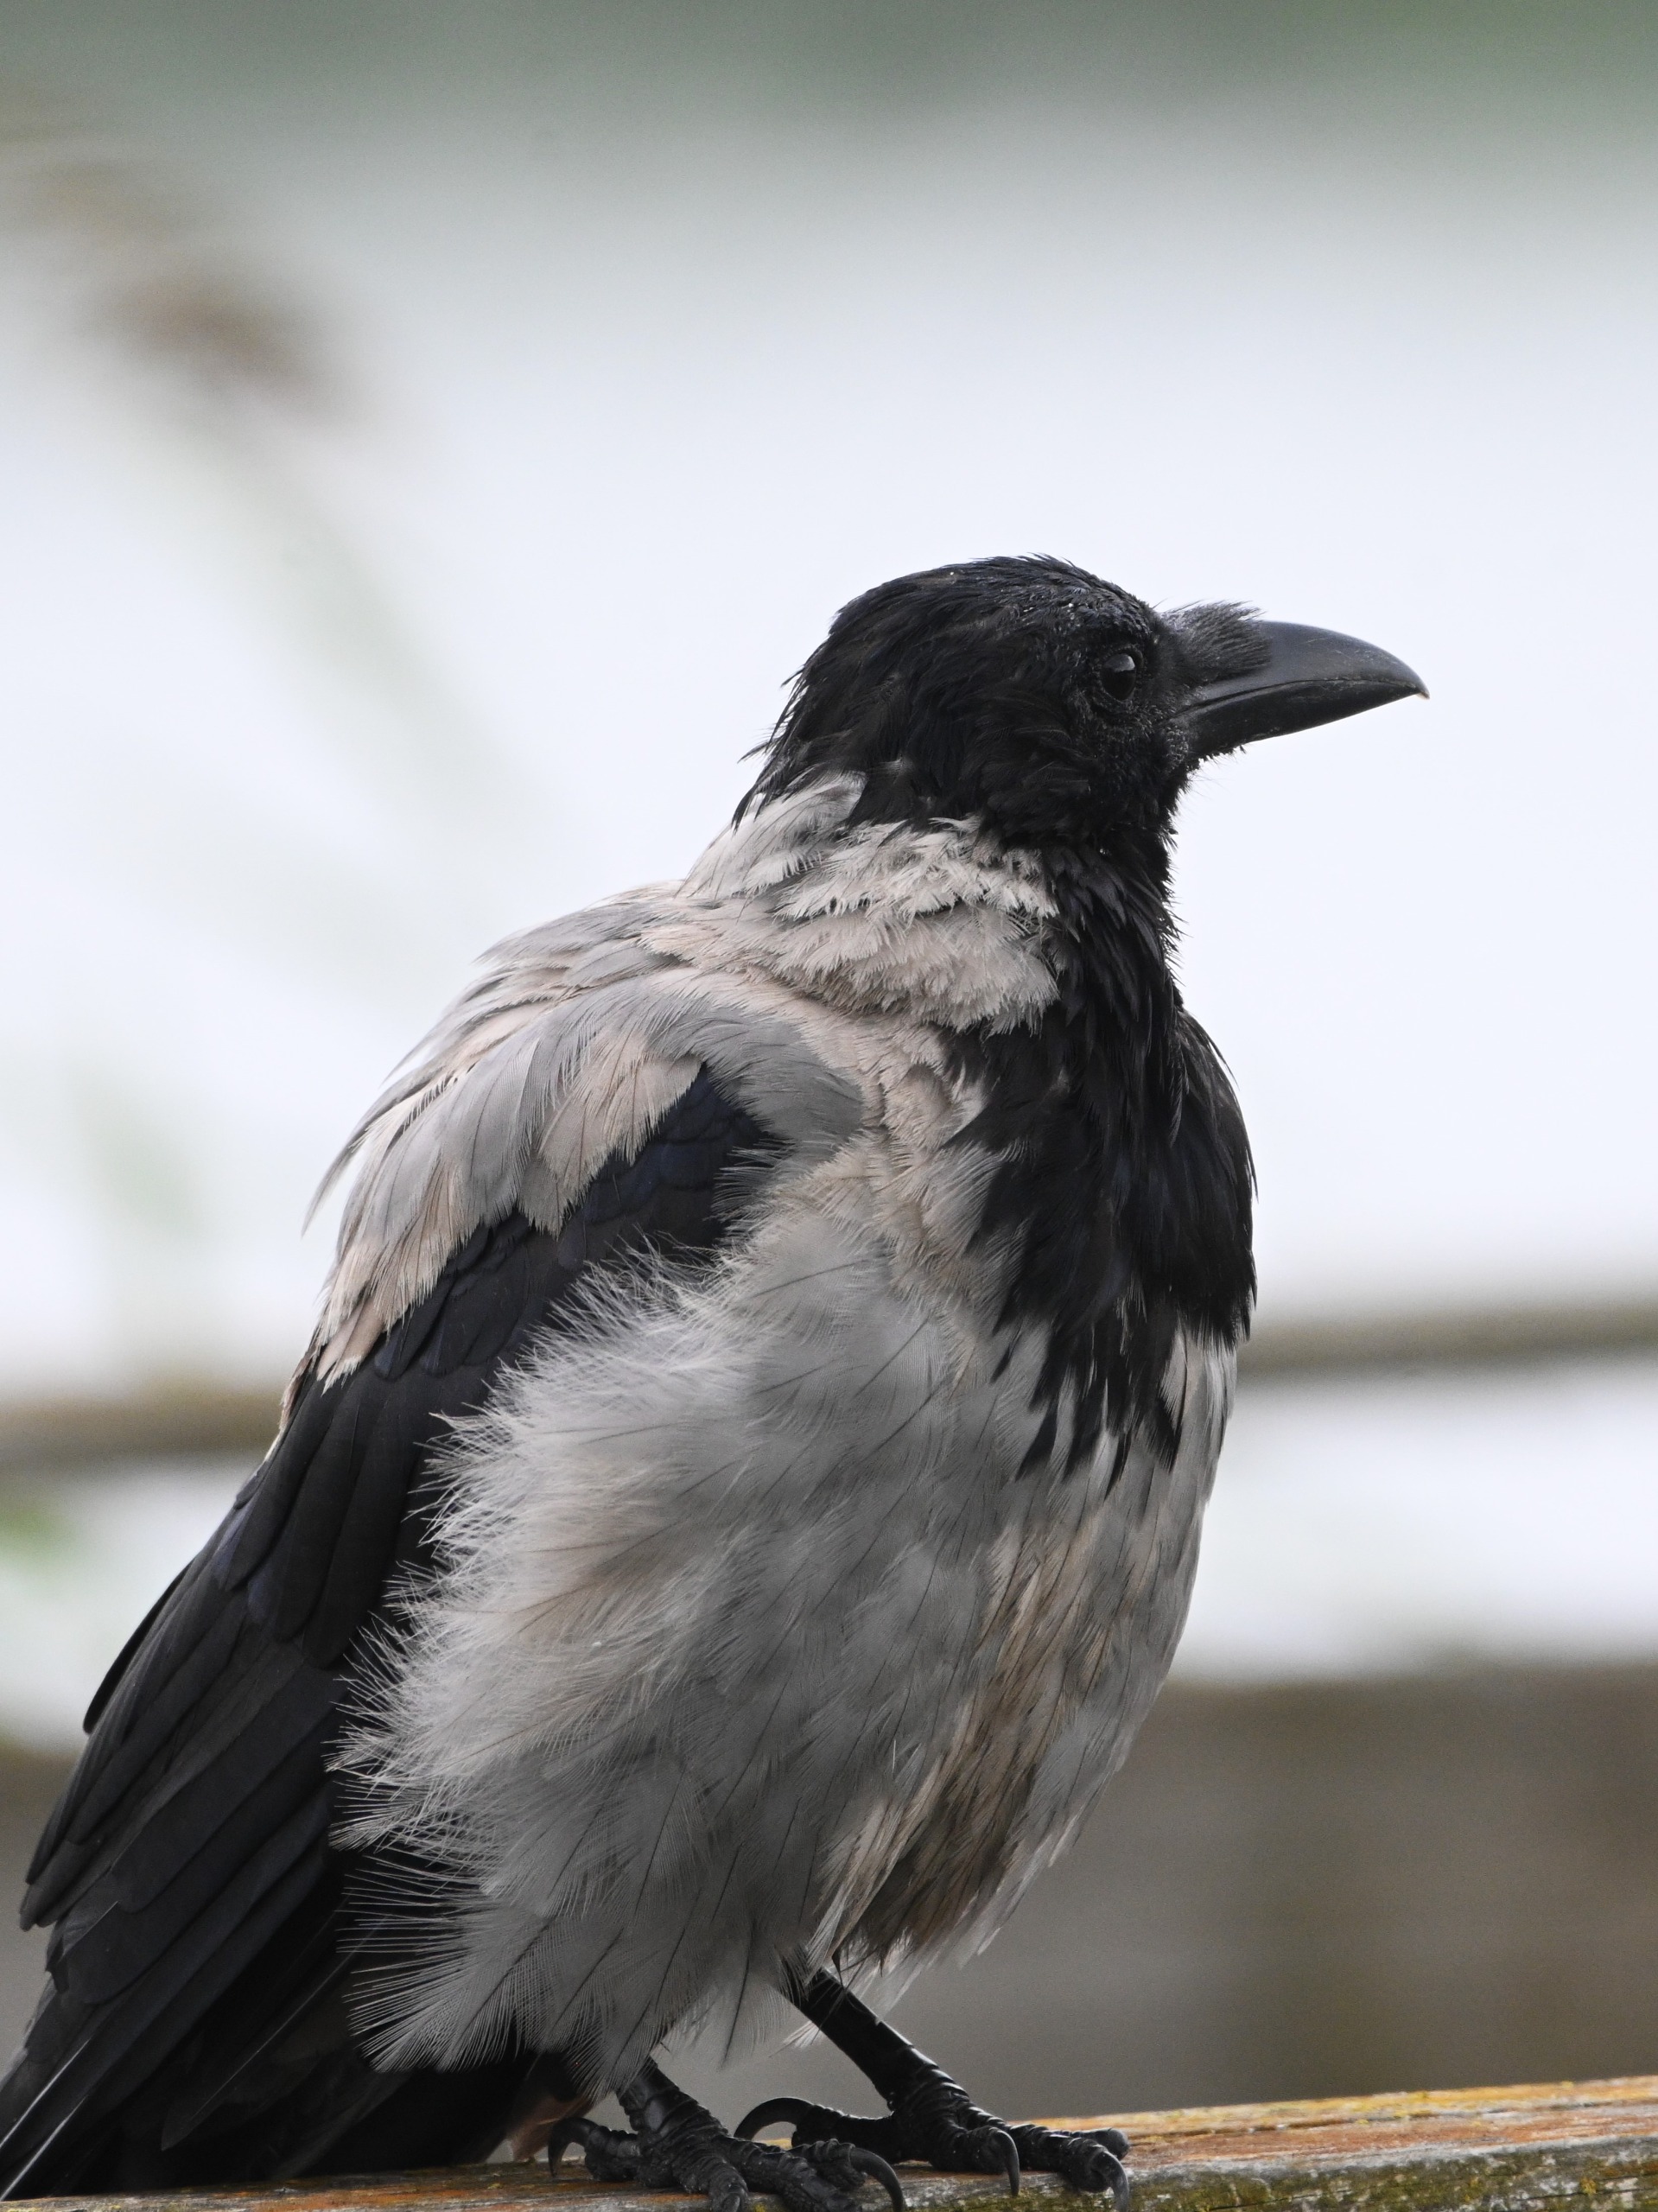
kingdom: Animalia
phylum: Chordata
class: Aves
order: Passeriformes
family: Corvidae
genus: Corvus
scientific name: Corvus cornix
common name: Gråkrage
